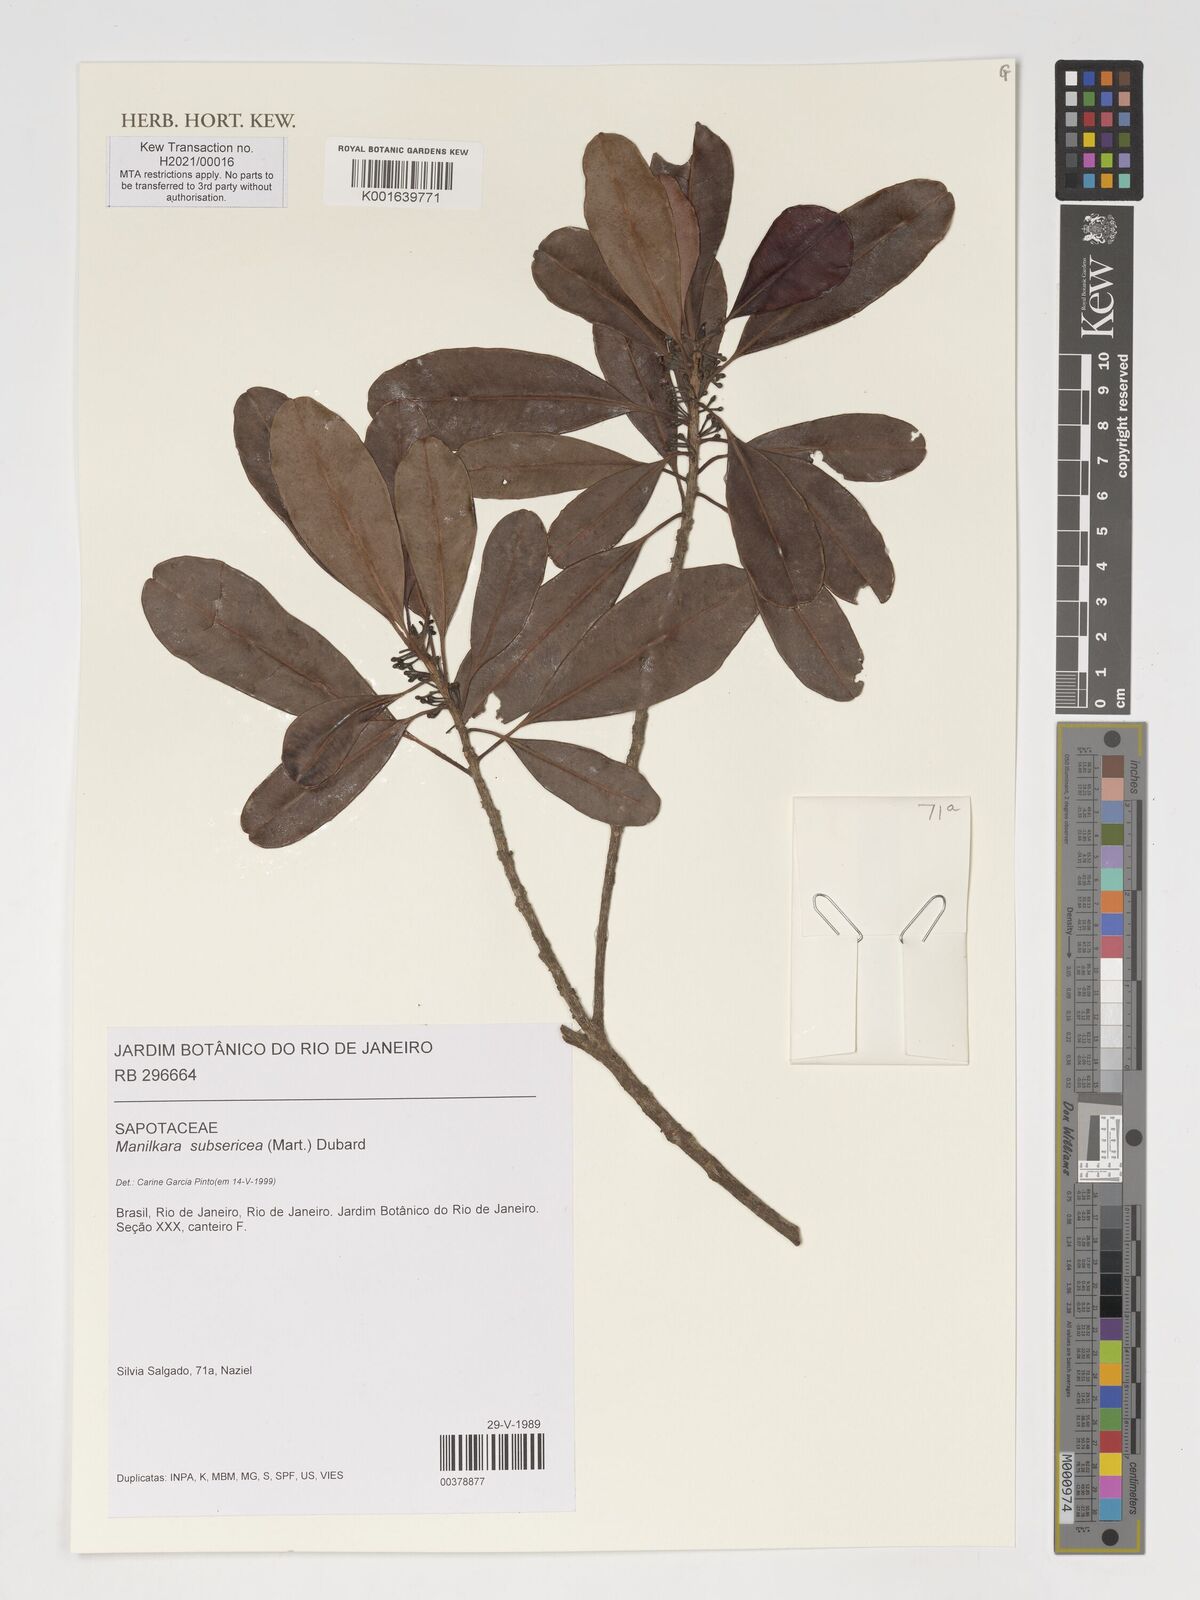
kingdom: Plantae
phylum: Tracheophyta
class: Magnoliopsida
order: Ericales
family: Sapotaceae
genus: Manilkara
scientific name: Manilkara subsericea
